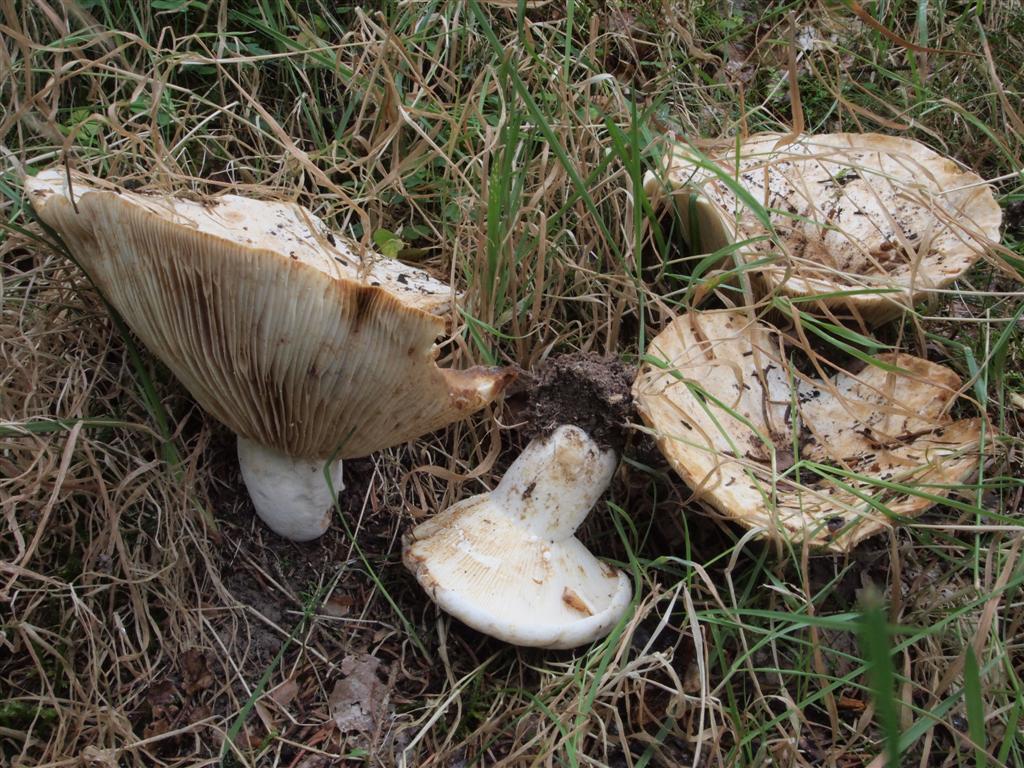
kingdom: Fungi
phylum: Basidiomycota
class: Agaricomycetes
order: Russulales
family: Russulaceae
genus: Lactifluus
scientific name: Lactifluus bertillonii
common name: blødfiltet mælkehat
